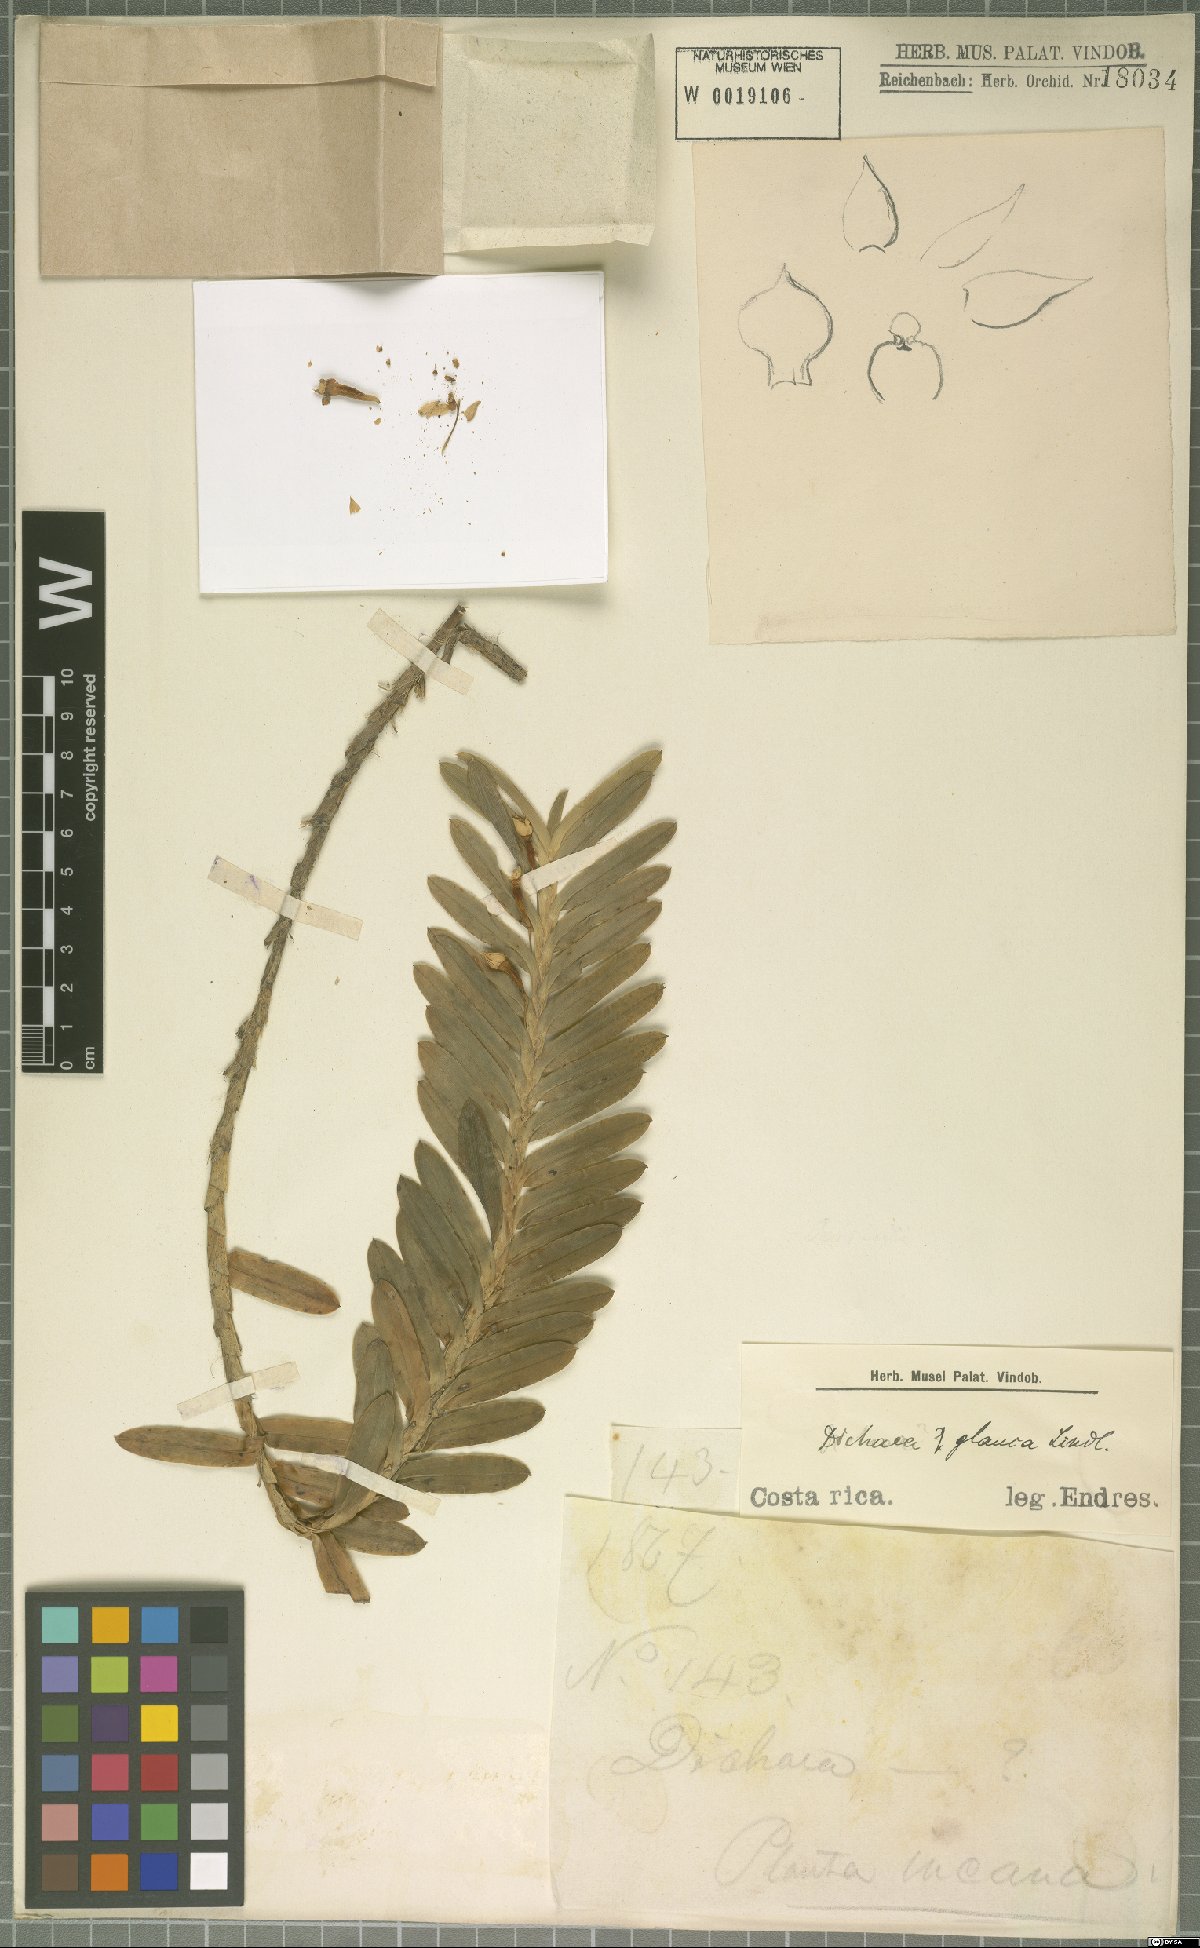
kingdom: Plantae
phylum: Tracheophyta
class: Liliopsida
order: Asparagales
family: Orchidaceae
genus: Dichaea
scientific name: Dichaea glauca
